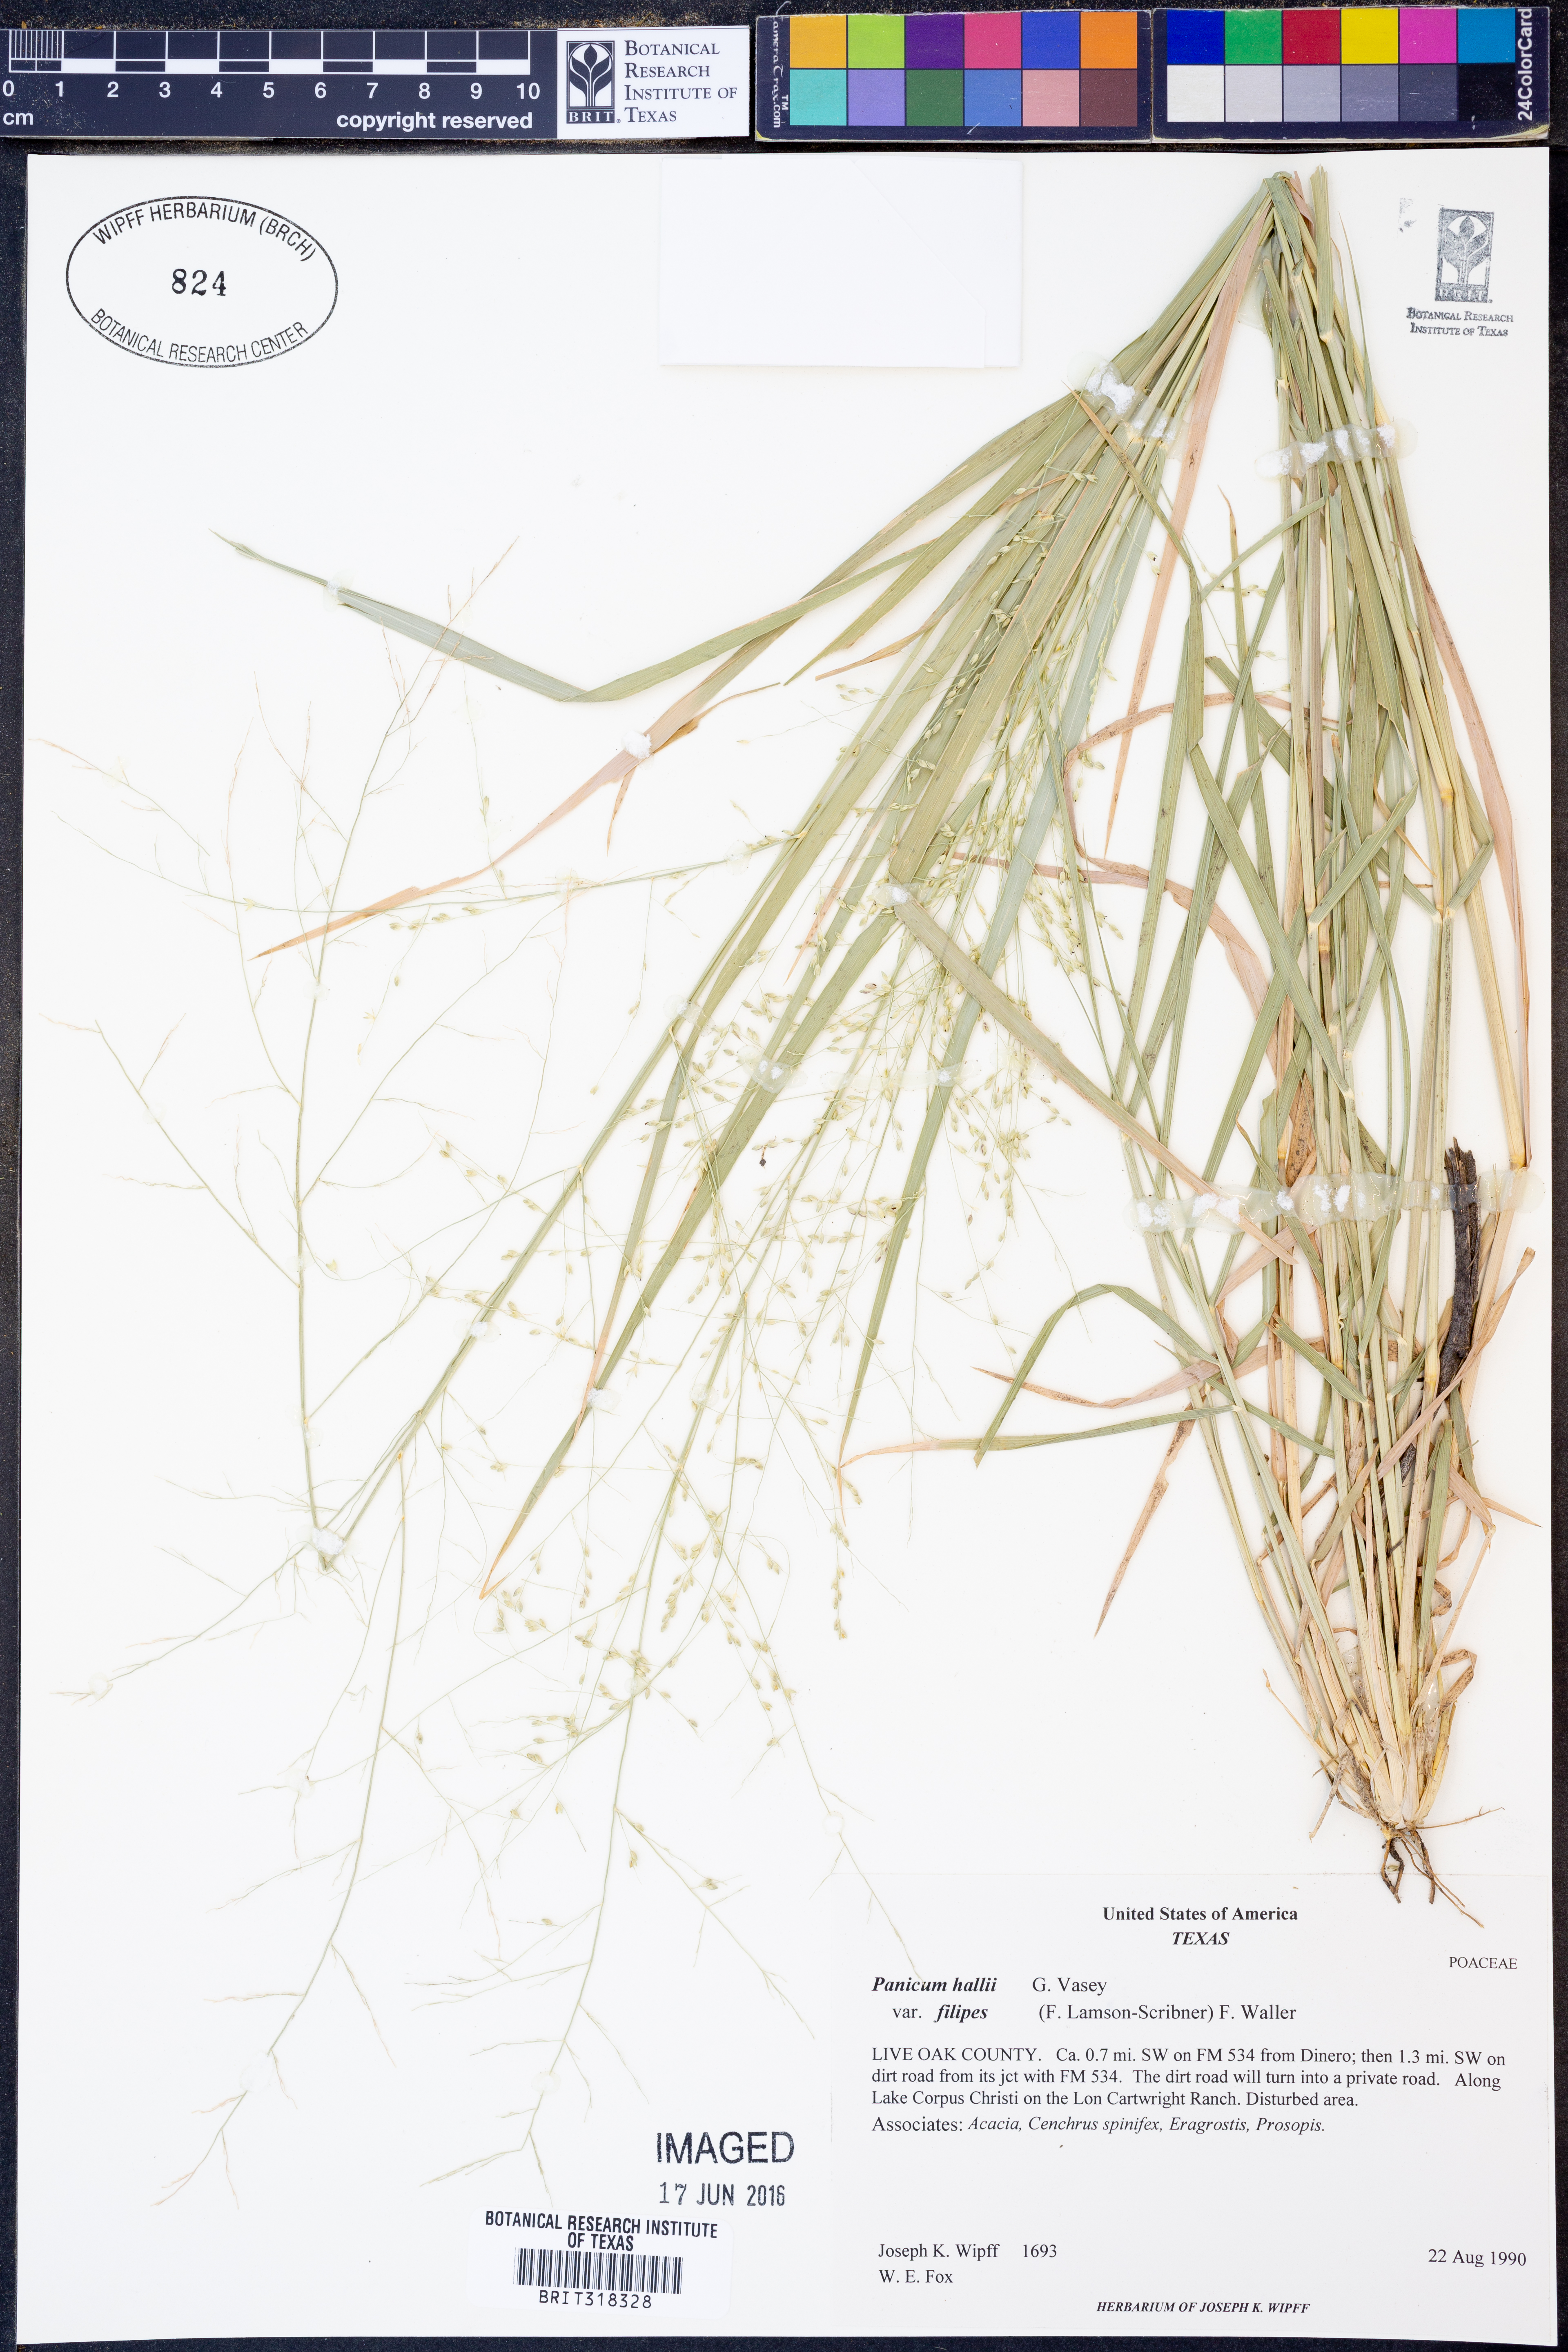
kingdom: Plantae
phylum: Tracheophyta
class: Liliopsida
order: Poales
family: Poaceae
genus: Panicum
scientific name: Panicum hallii
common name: Hall's witchgrass
